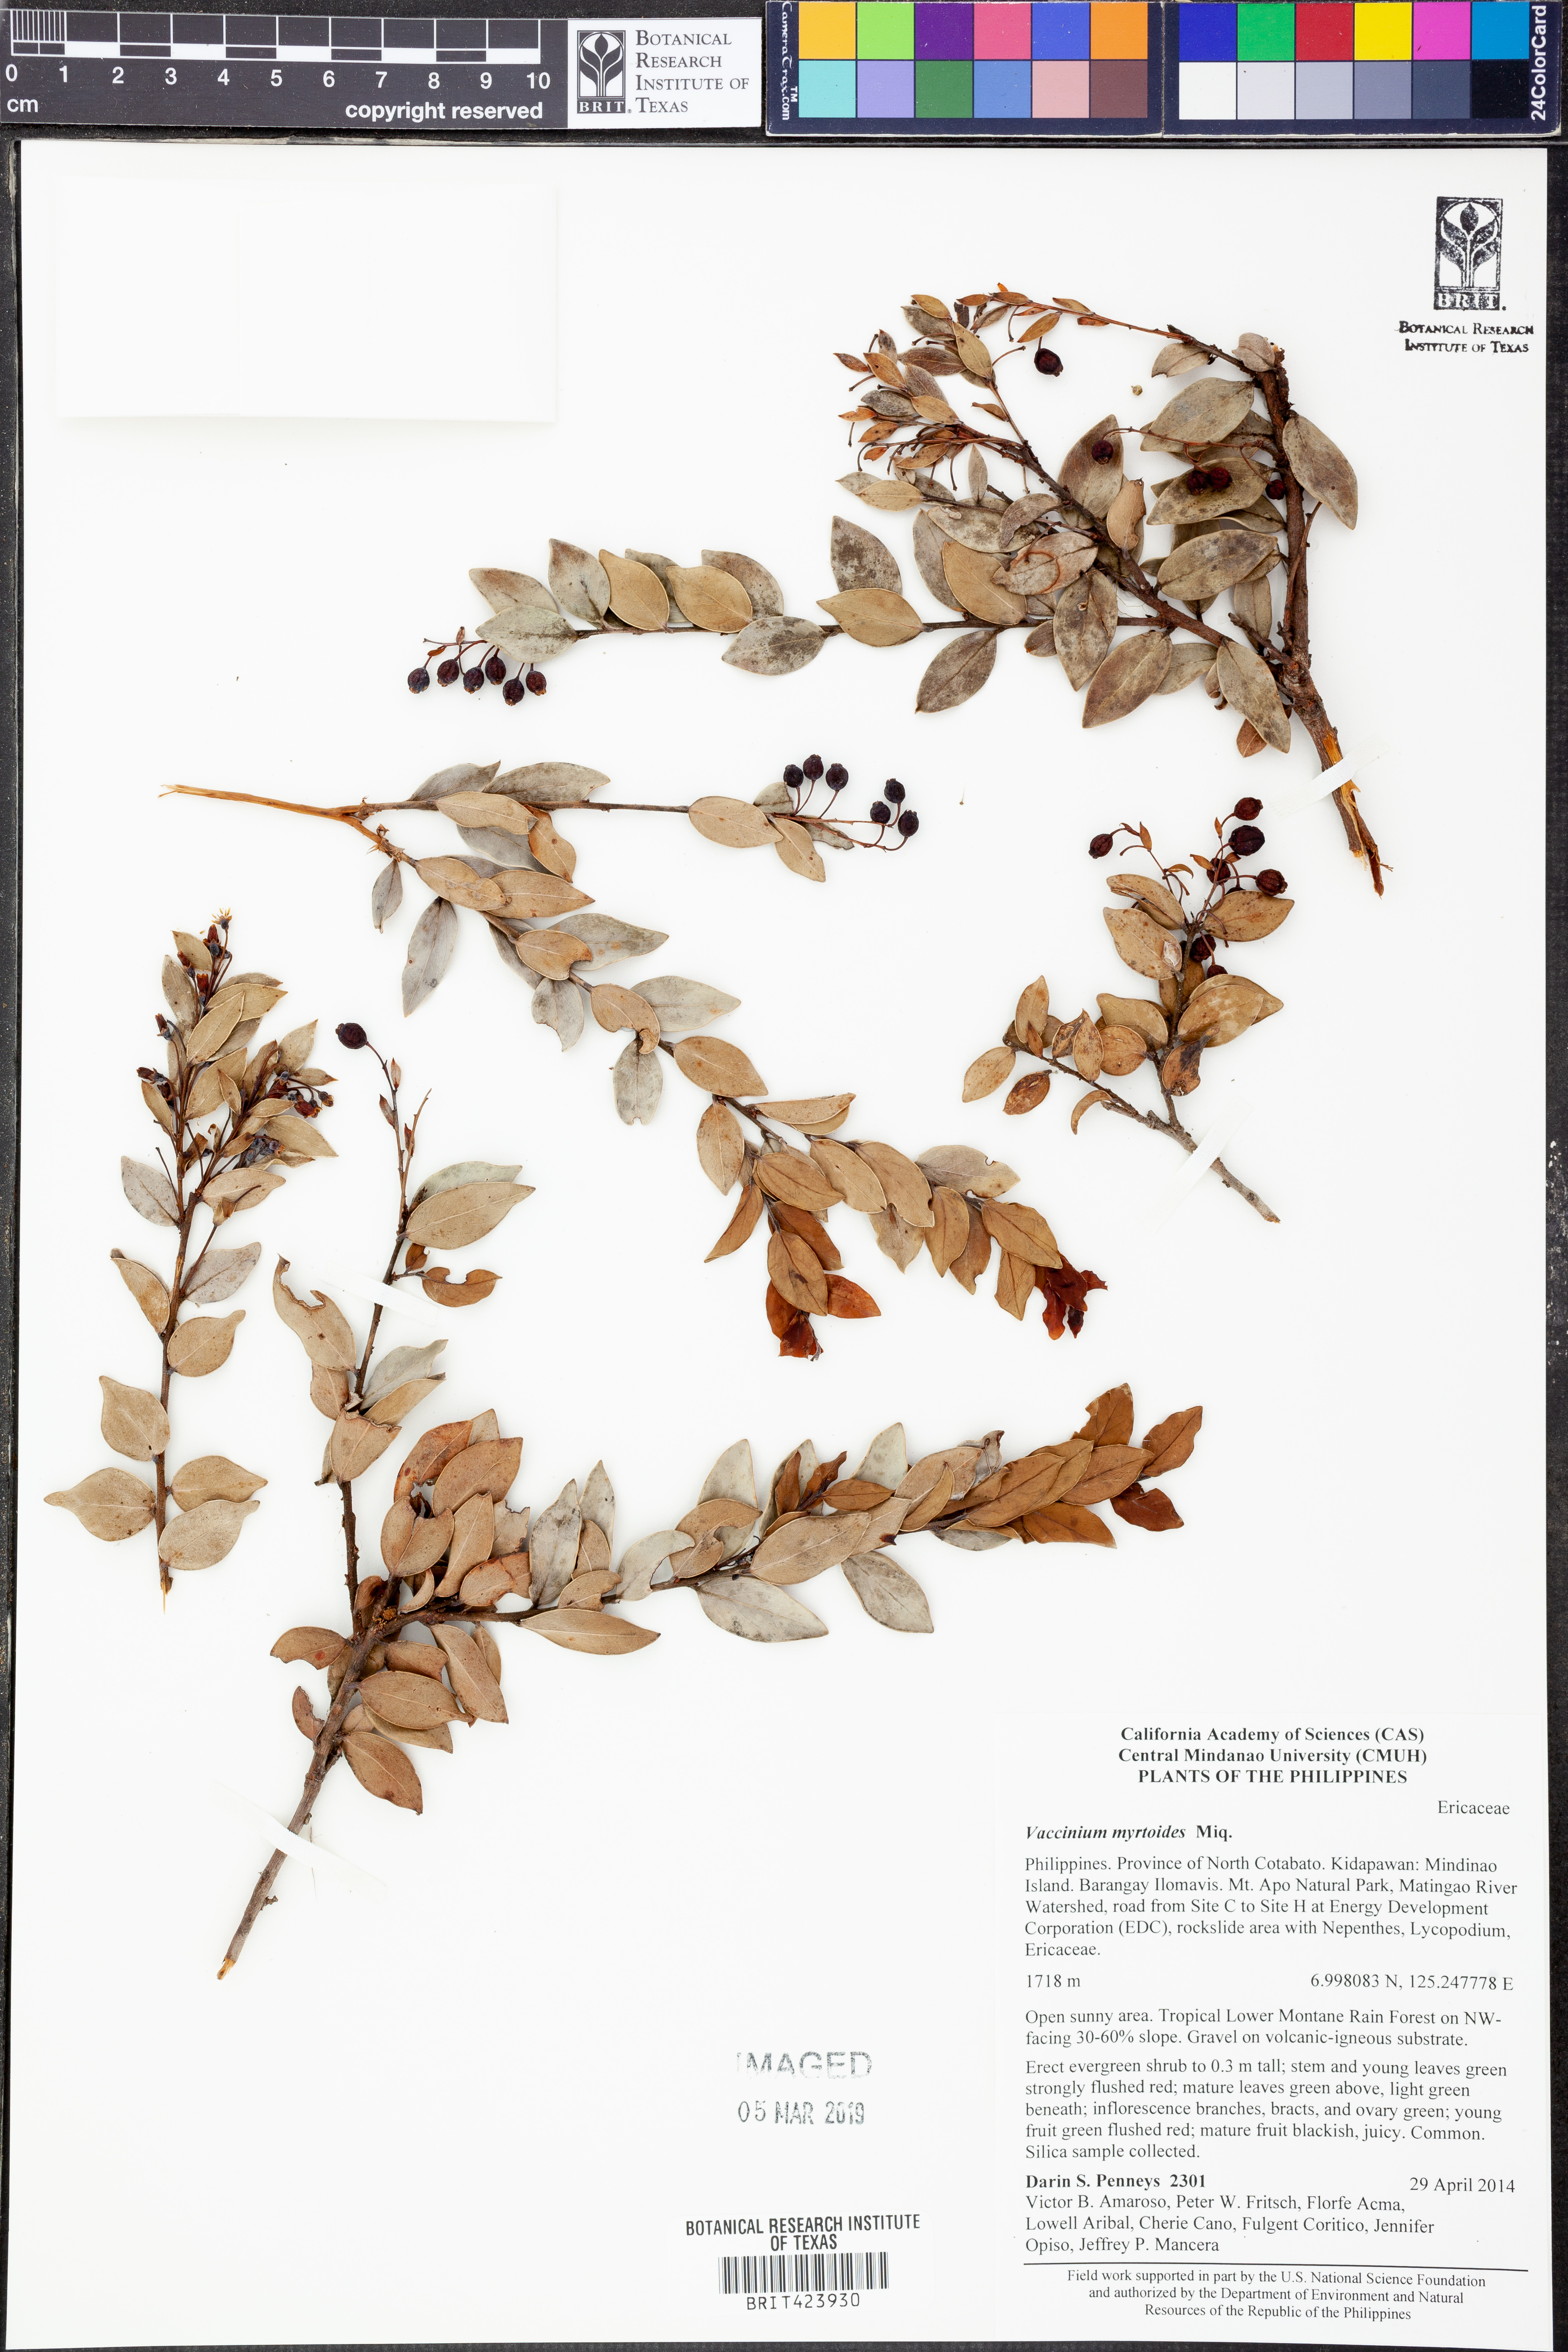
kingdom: Plantae
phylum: Tracheophyta
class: Magnoliopsida
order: Ericales
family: Ericaceae
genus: Vaccinium
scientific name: Vaccinium myrtoides
